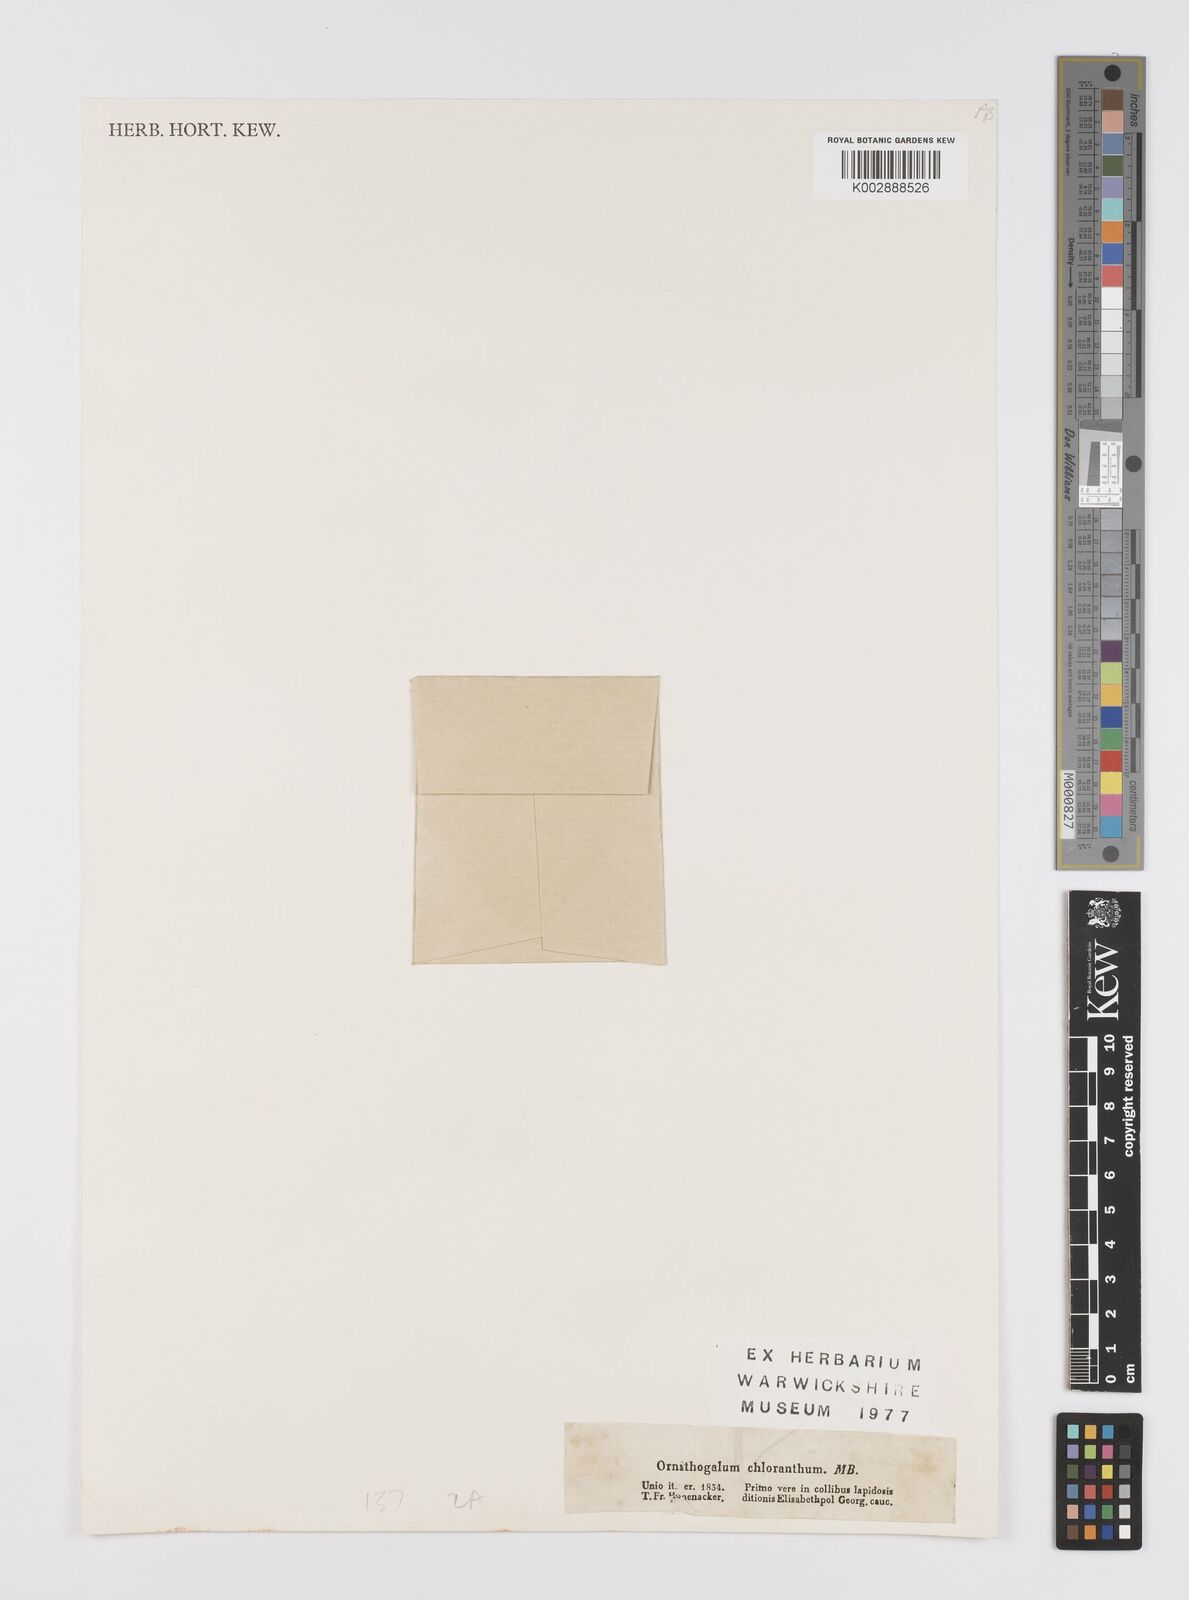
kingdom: Plantae
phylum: Tracheophyta
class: Liliopsida
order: Liliales
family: Liliaceae
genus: Gagea
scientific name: Gagea chlorantha
